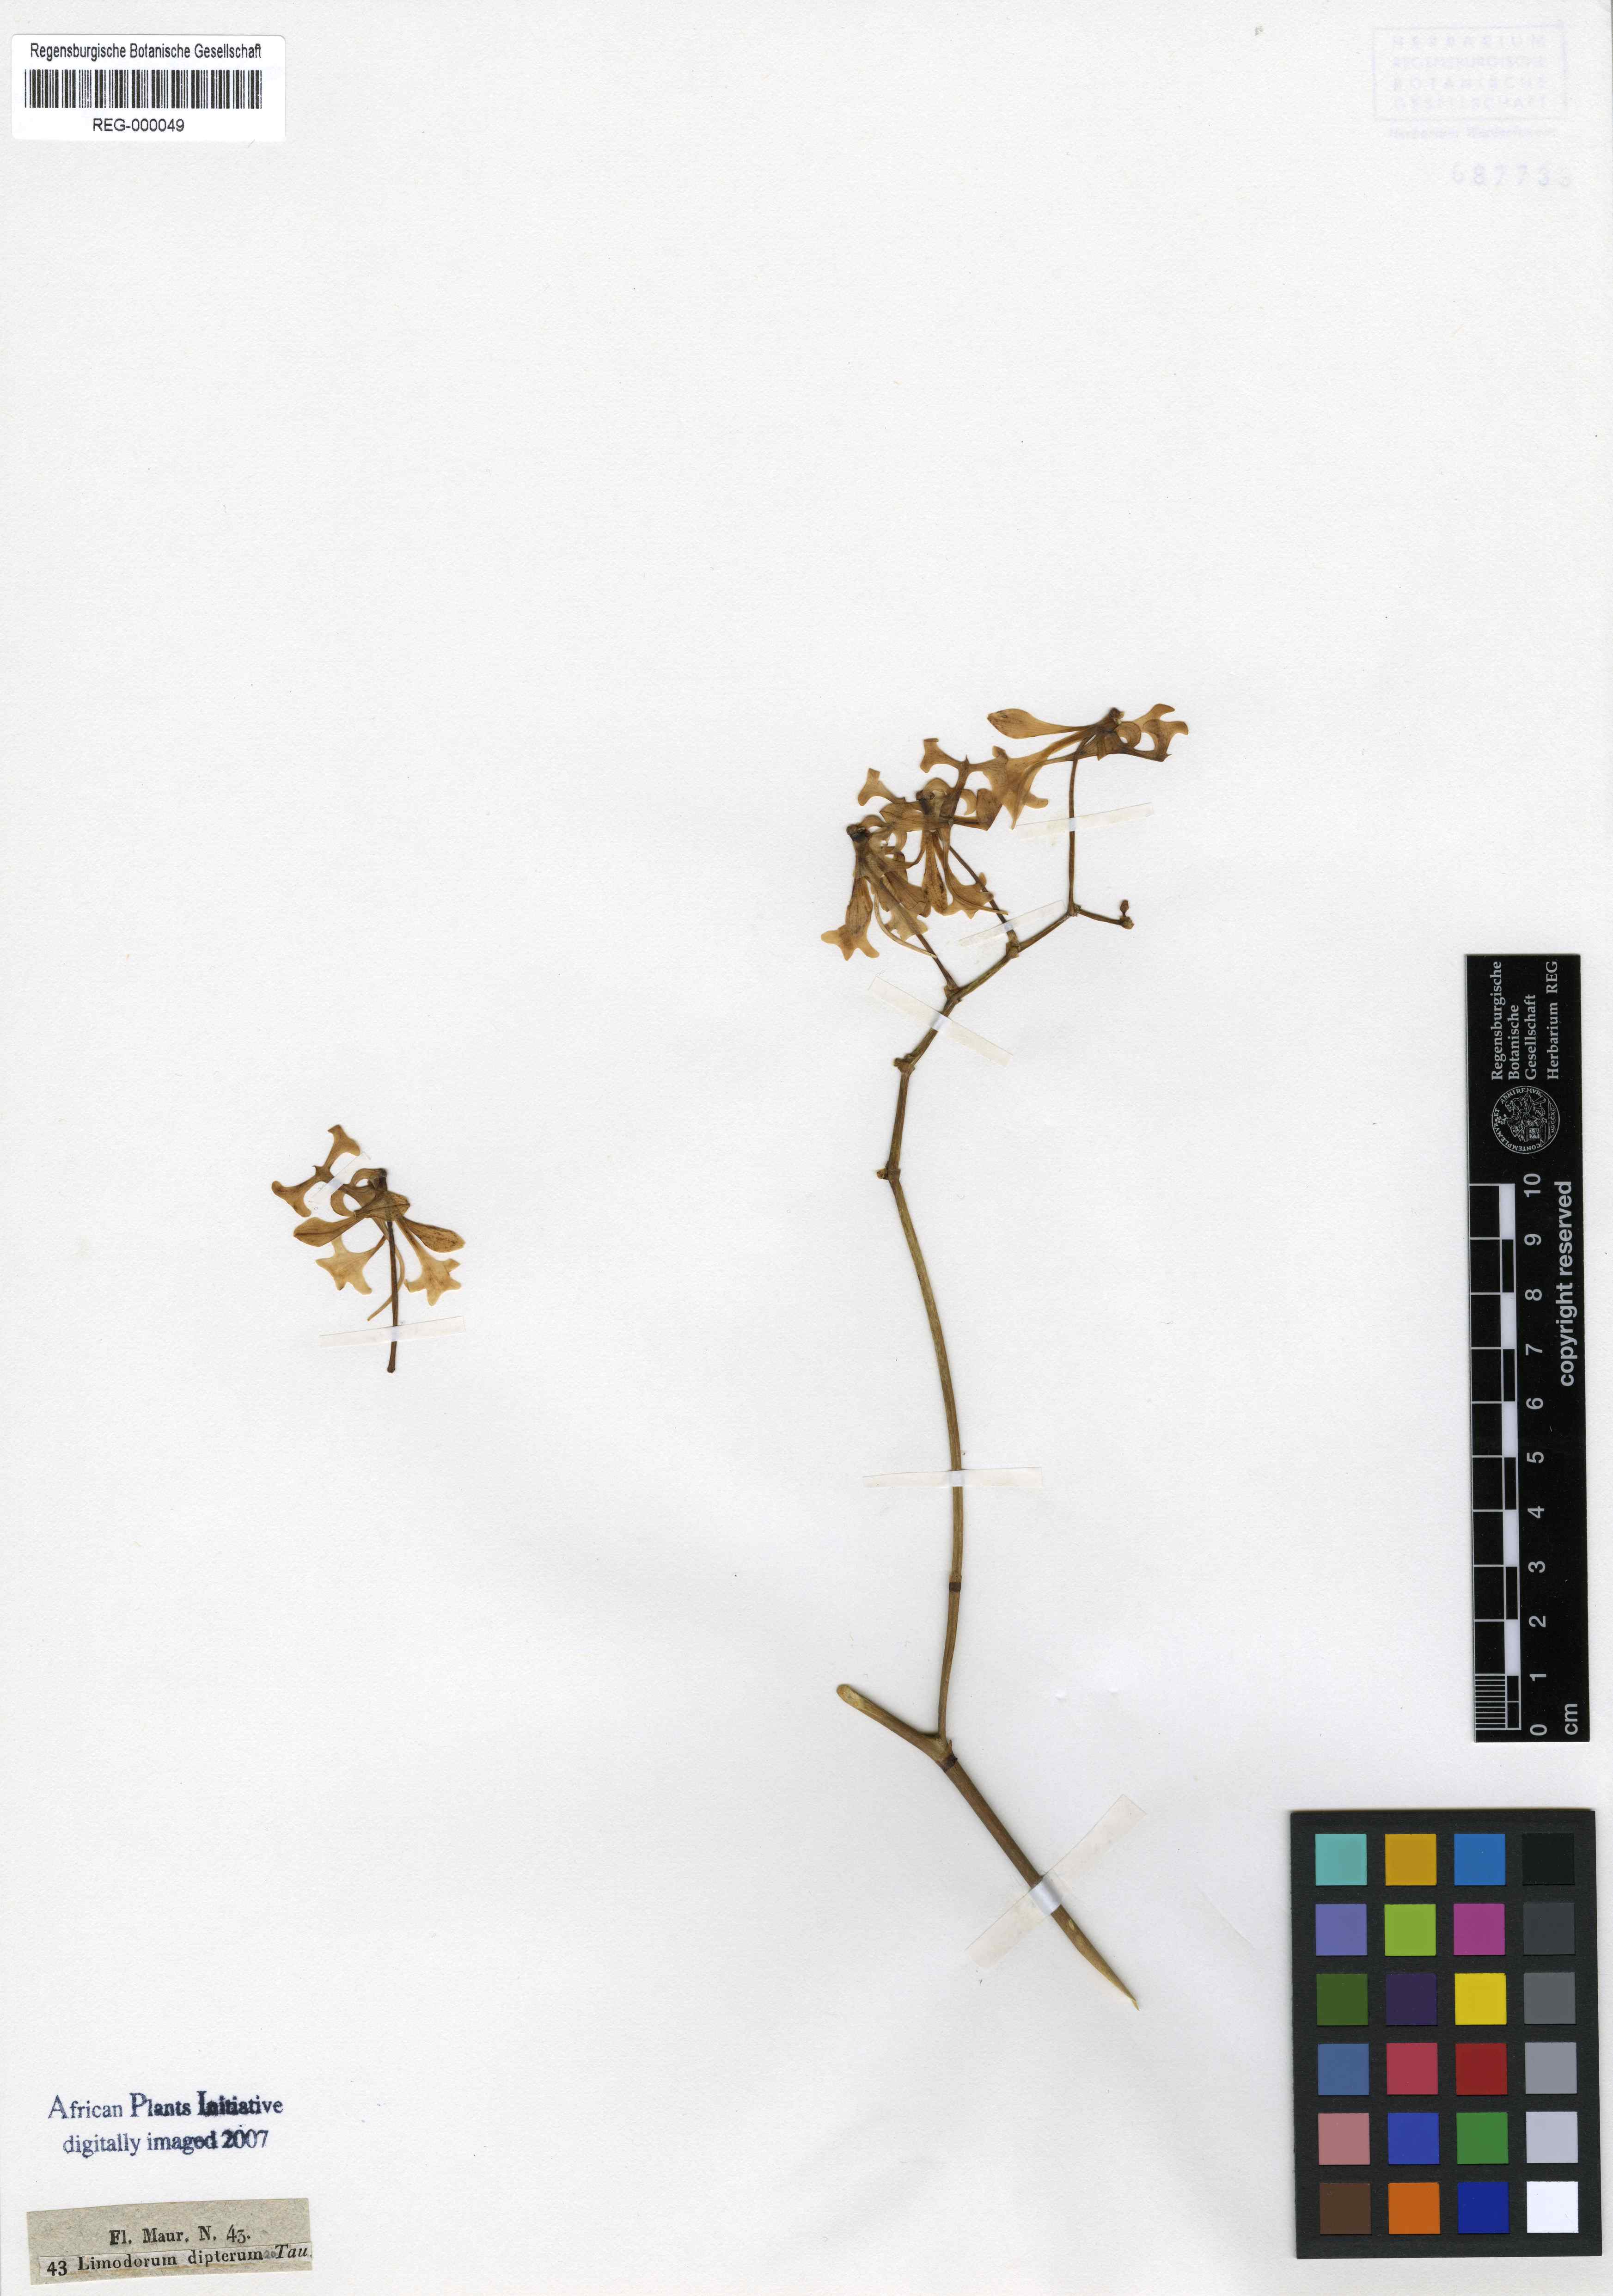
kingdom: Plantae
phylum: Tracheophyta
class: Liliopsida
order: Asparagales
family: Orchidaceae
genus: Cryptopus
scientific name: Cryptopus elatus
